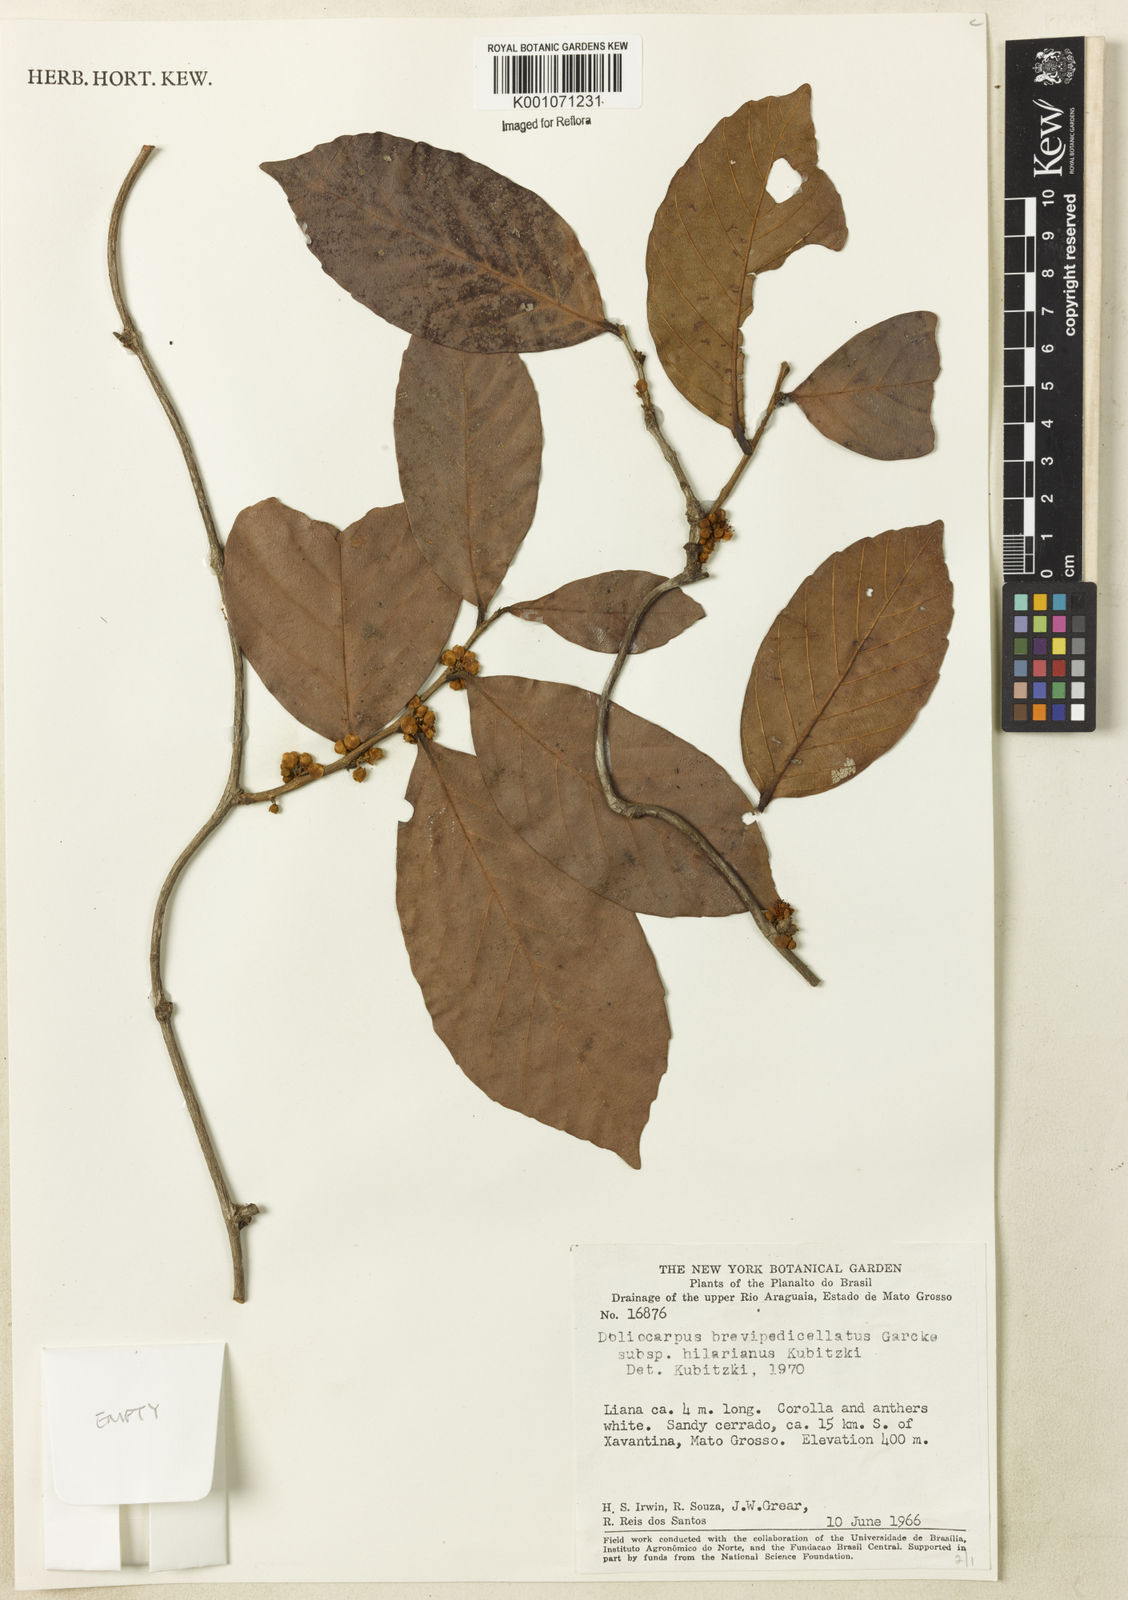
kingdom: Plantae
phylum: Tracheophyta
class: Magnoliopsida
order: Dilleniales
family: Dilleniaceae
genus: Doliocarpus
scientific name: Doliocarpus hilarianus
